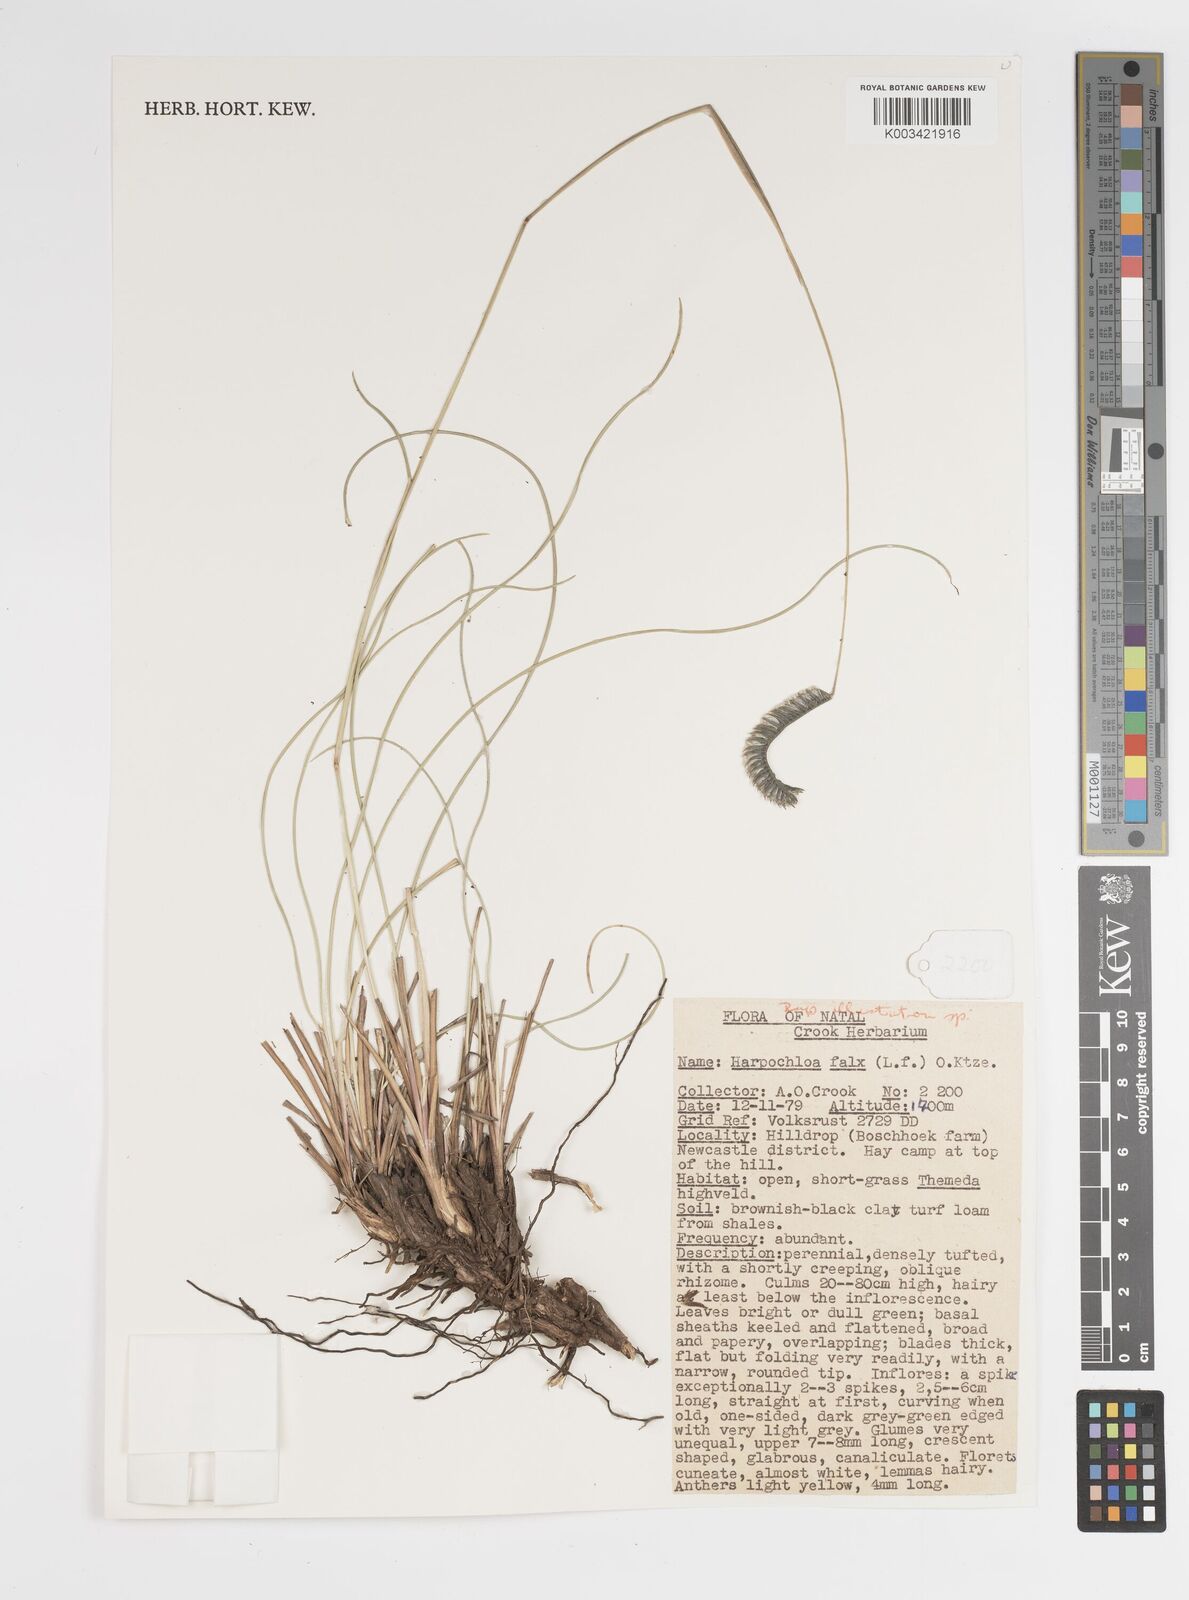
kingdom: Plantae
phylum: Tracheophyta
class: Liliopsida
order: Poales
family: Poaceae
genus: Harpochloa
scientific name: Harpochloa falx
